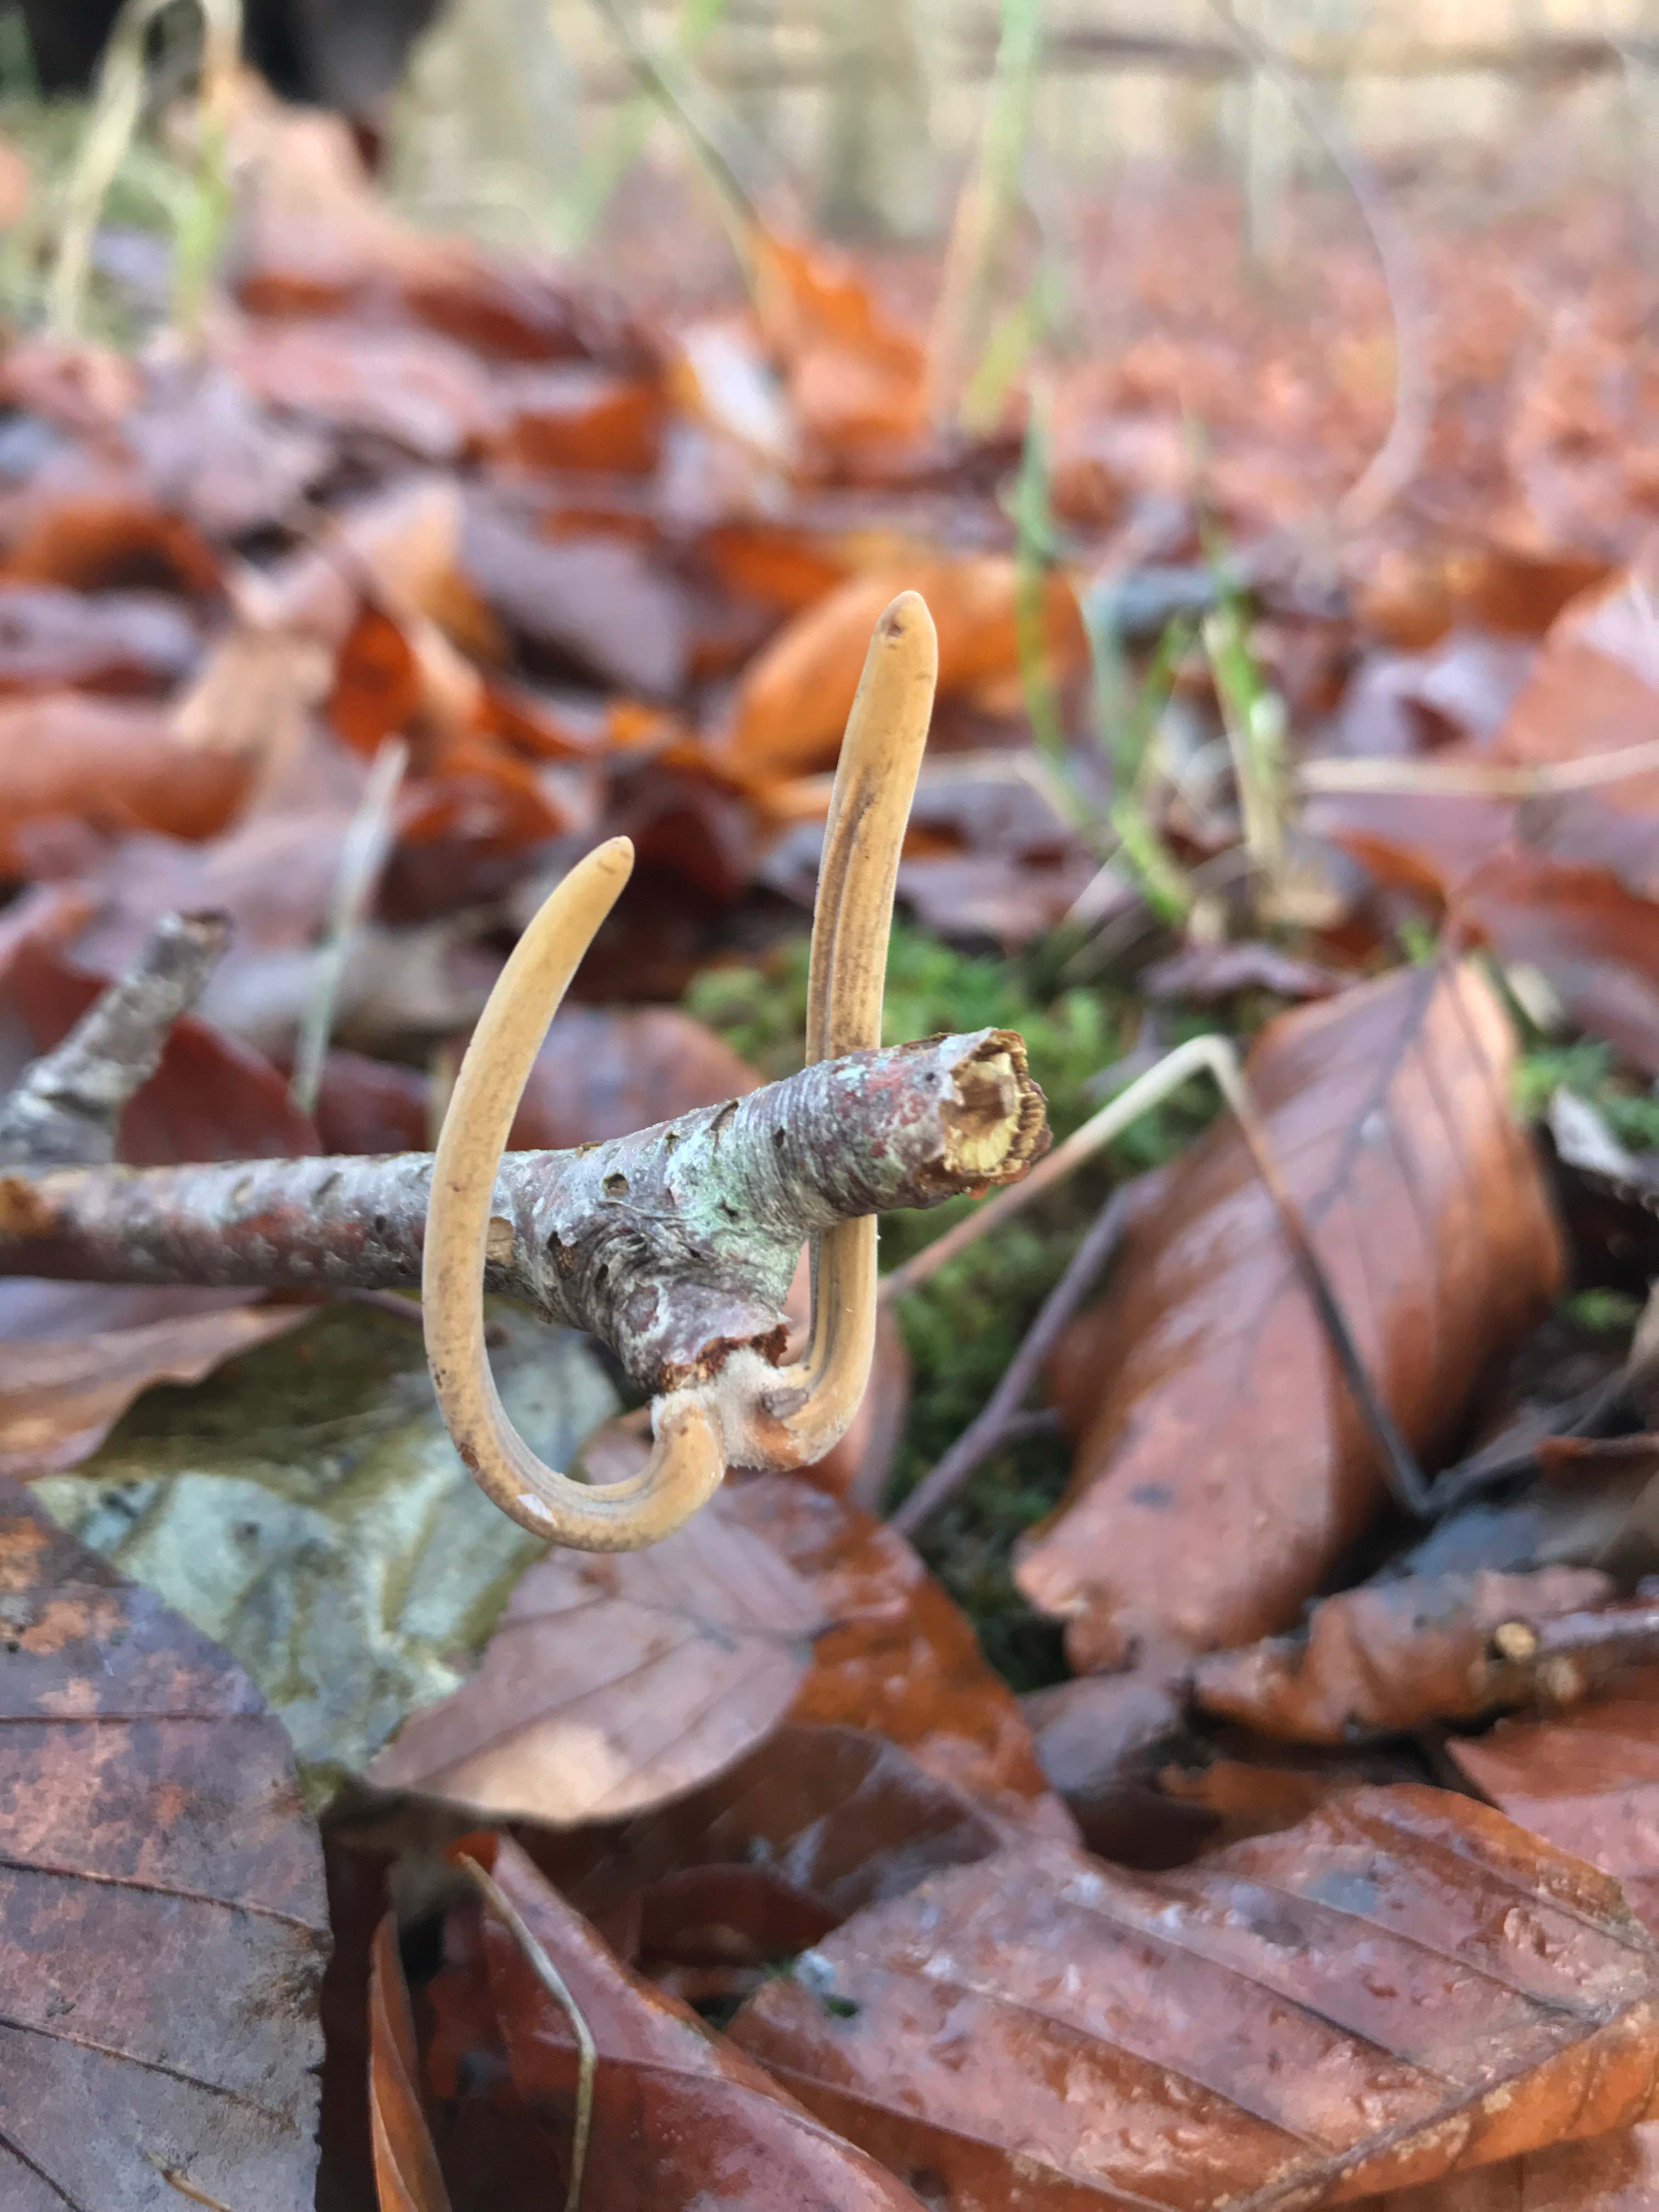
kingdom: Fungi
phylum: Basidiomycota
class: Agaricomycetes
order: Agaricales
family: Typhulaceae
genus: Typhula
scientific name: Typhula fistulosa
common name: pibet rørkølle
